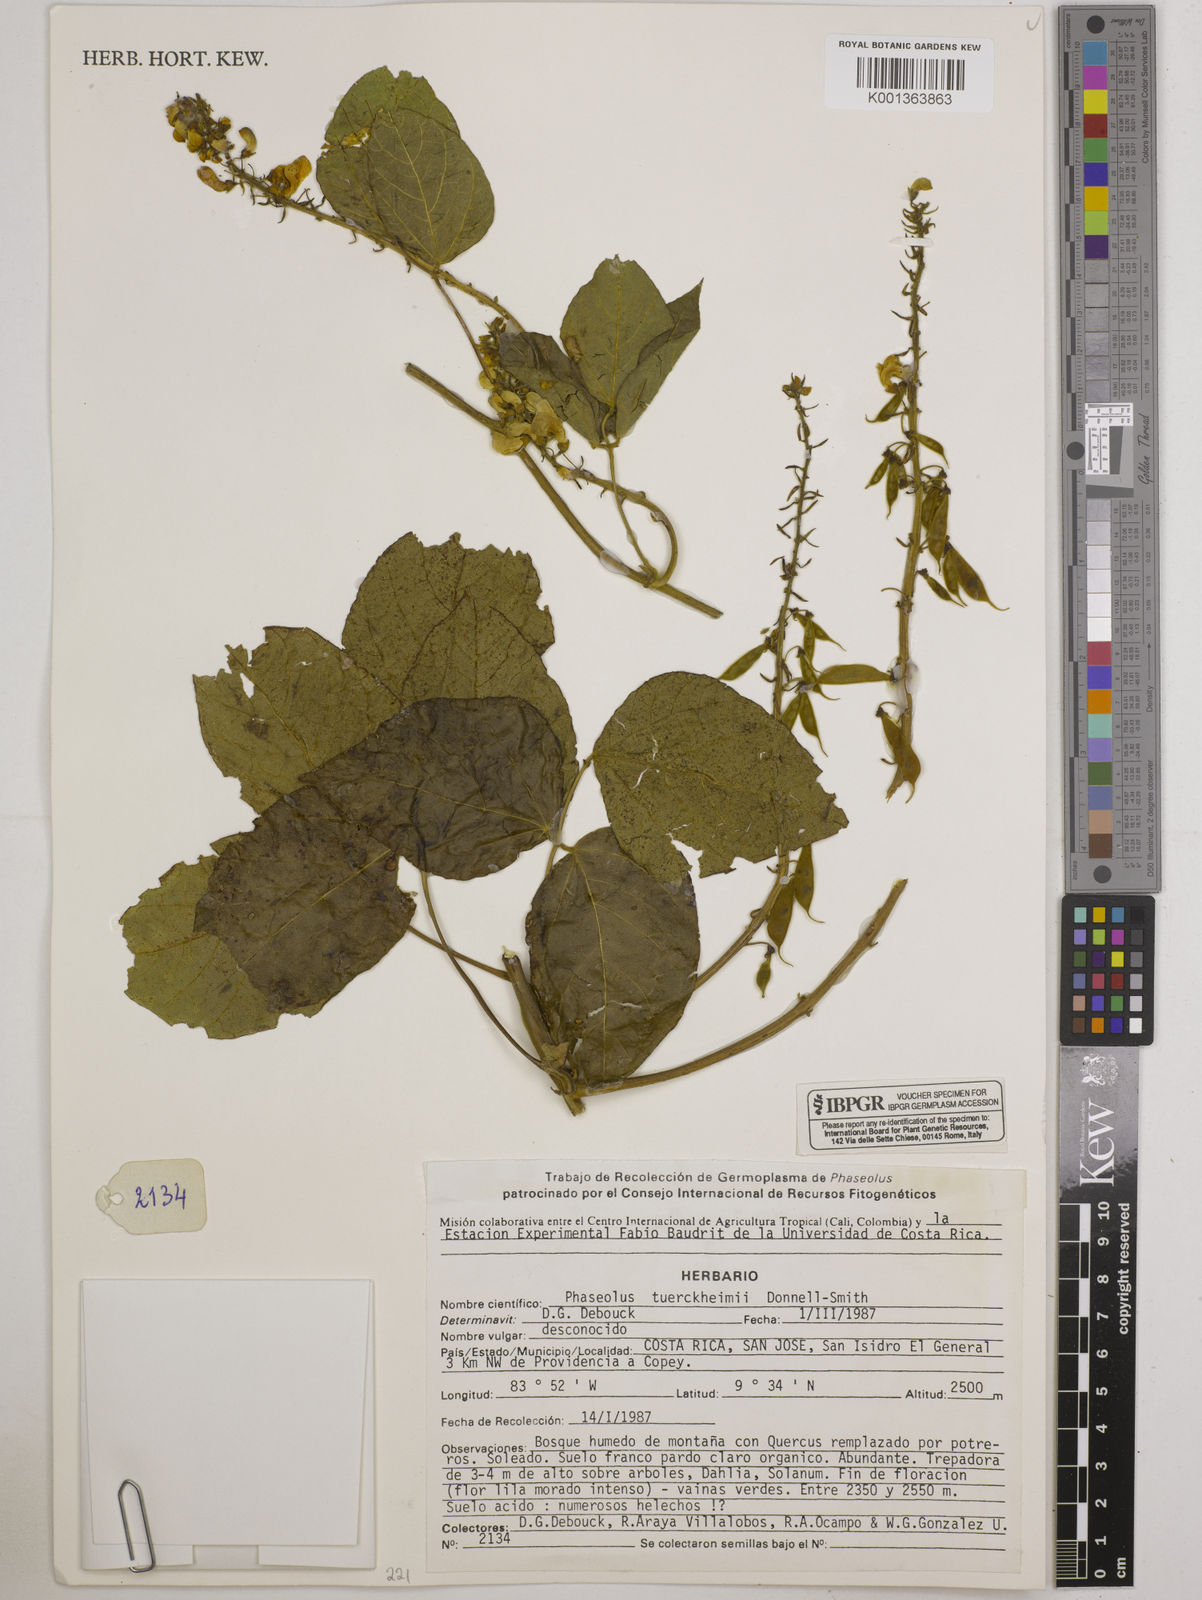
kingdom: Plantae
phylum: Tracheophyta
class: Magnoliopsida
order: Fabales
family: Fabaceae
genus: Phaseolus
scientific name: Phaseolus tuerckheimii
